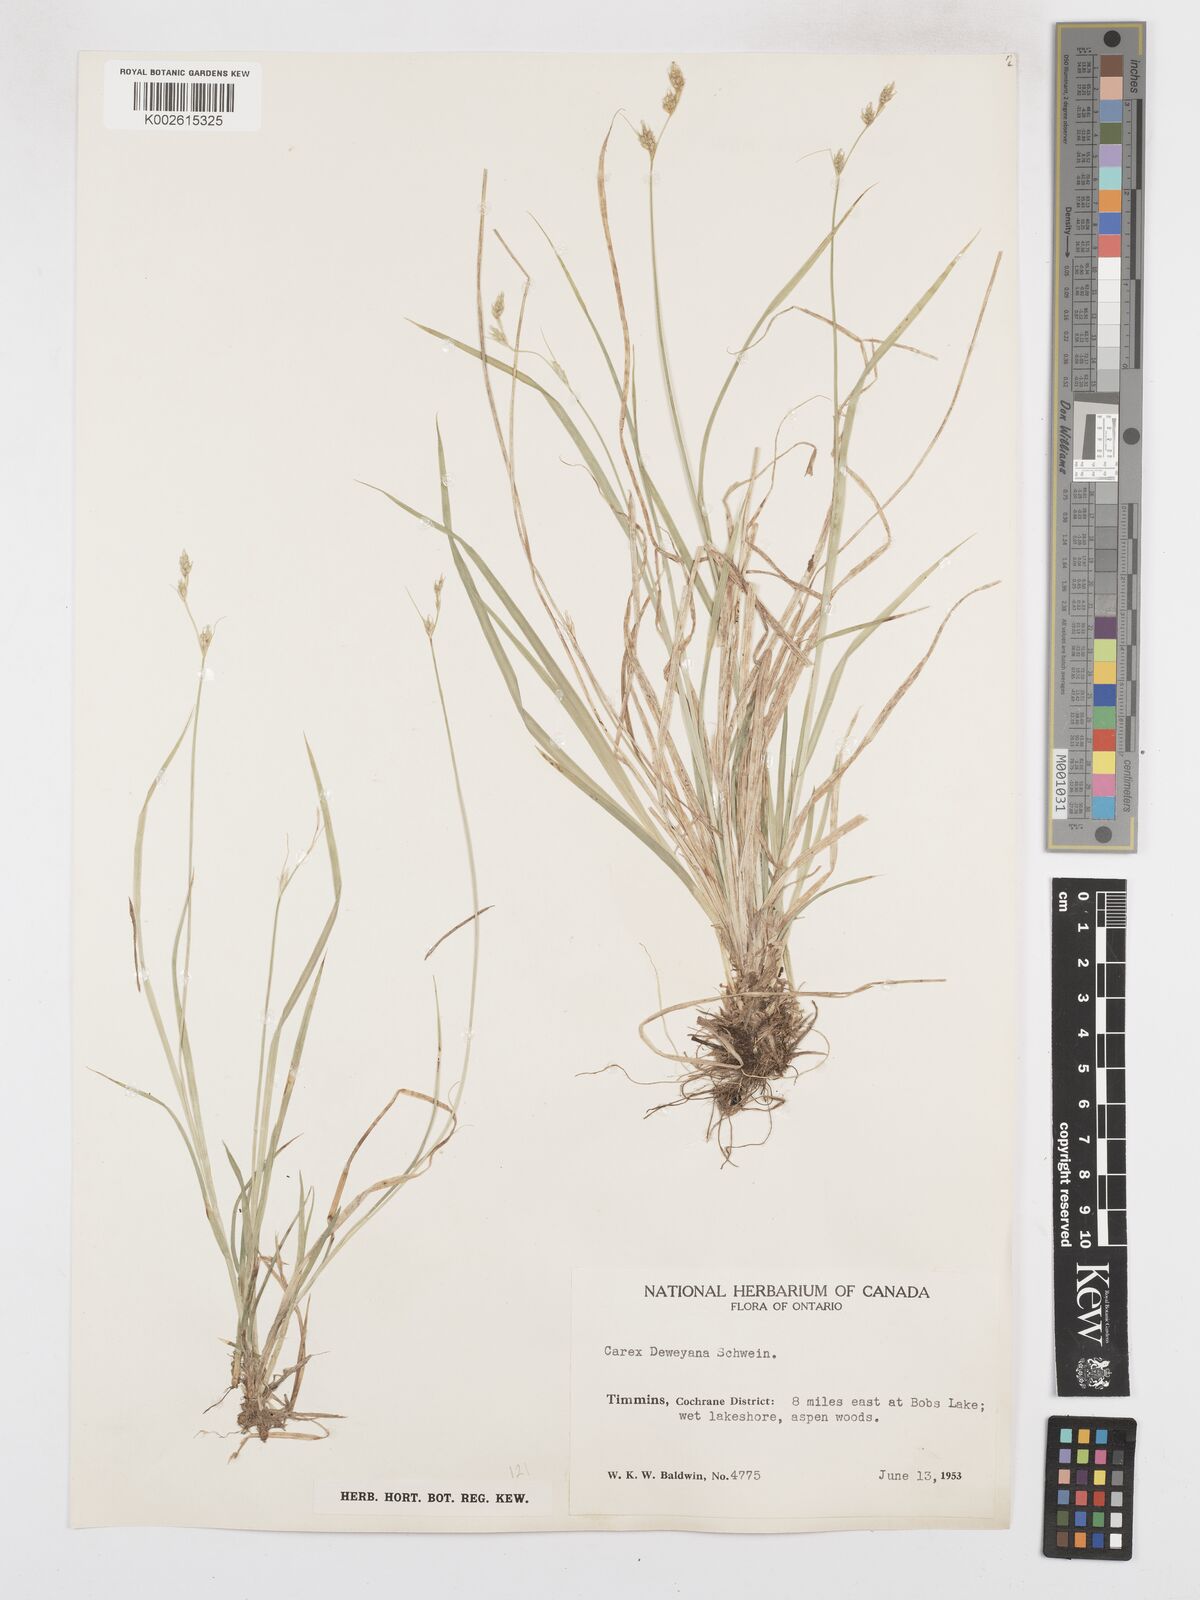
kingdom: Plantae
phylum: Tracheophyta
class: Liliopsida
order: Poales
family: Cyperaceae
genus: Carex
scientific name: Carex deweyana
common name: Dewey's sedge
